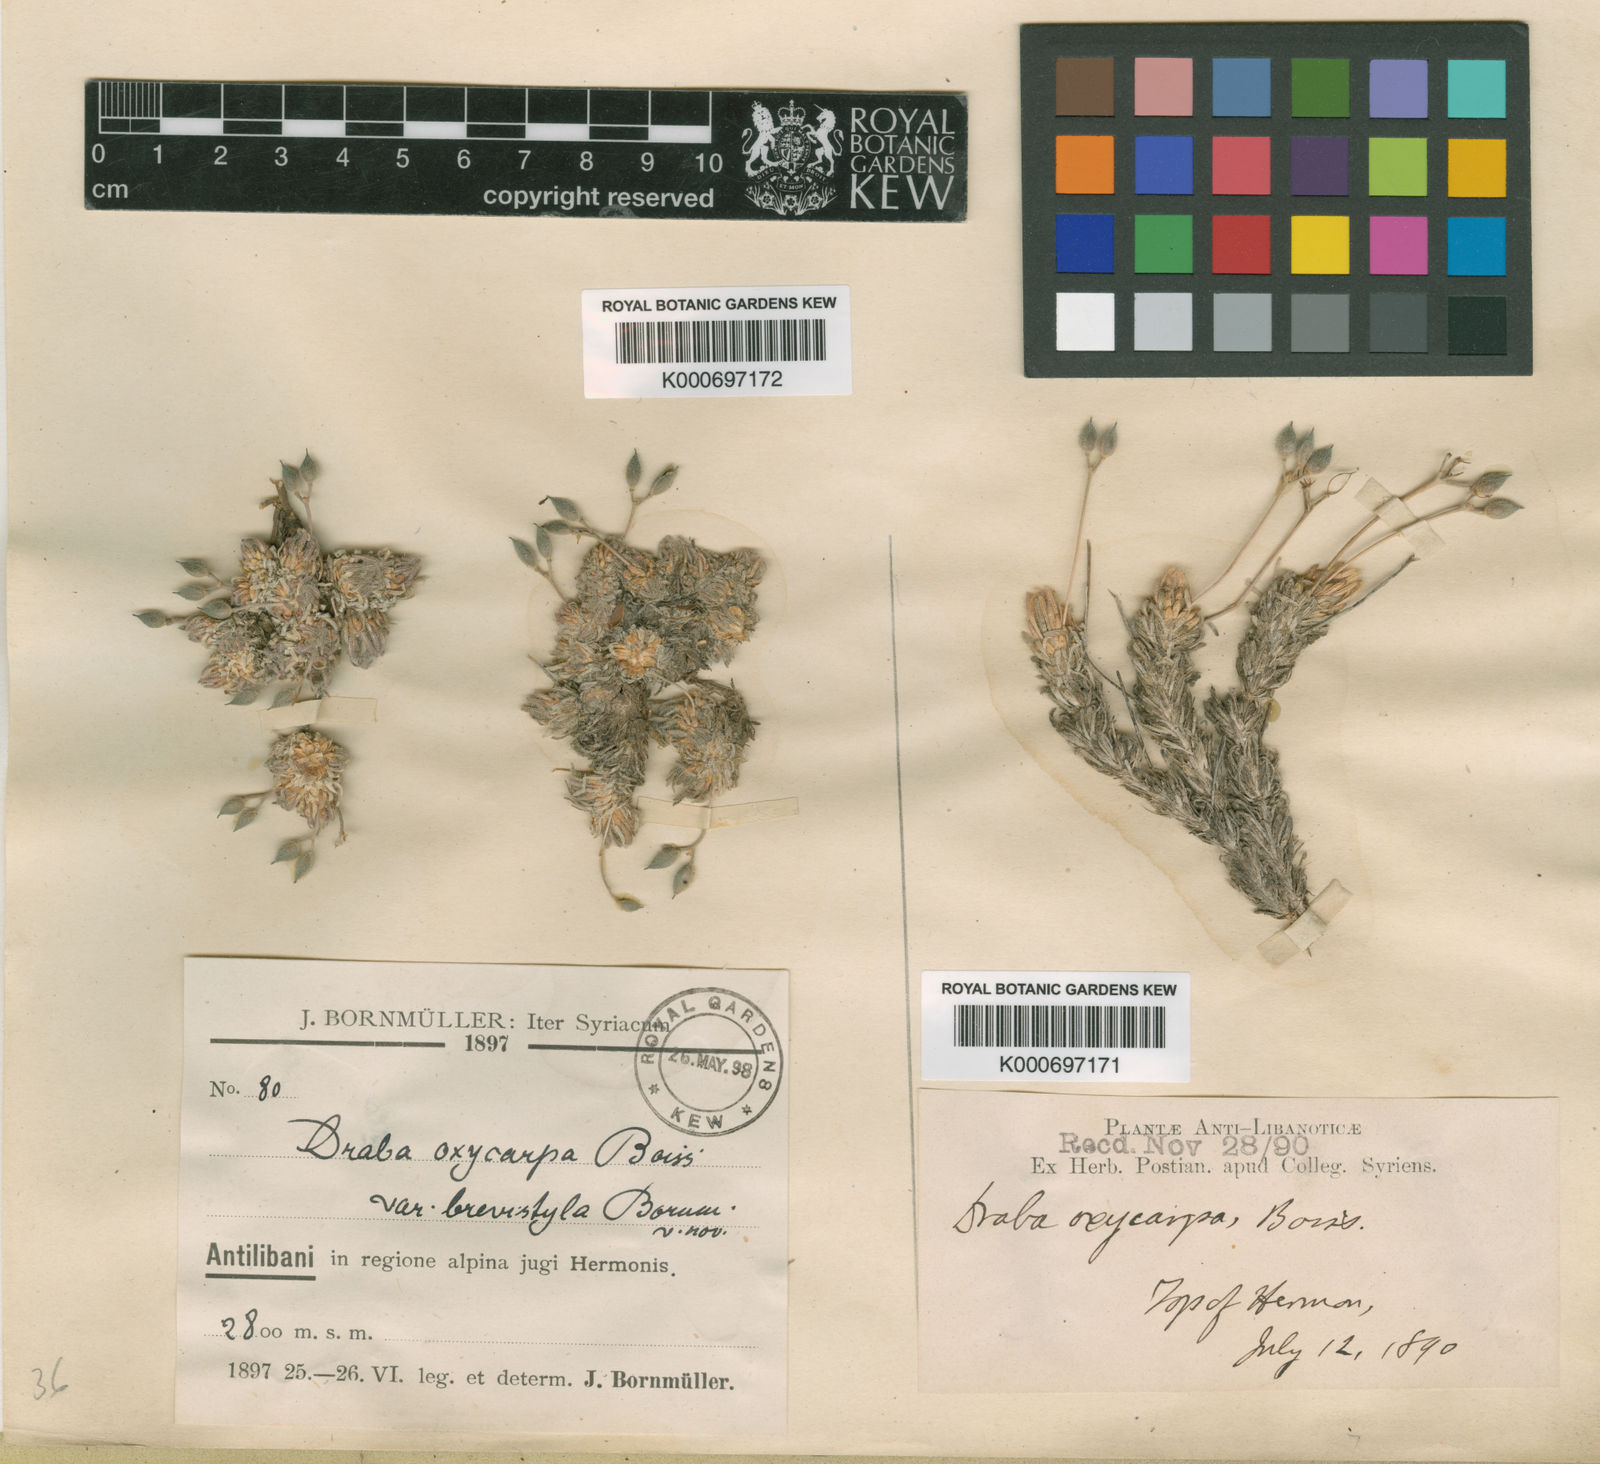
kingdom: Plantae
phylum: Tracheophyta
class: Magnoliopsida
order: Brassicales
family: Brassicaceae
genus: Draba
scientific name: Draba oxycarpa
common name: Sharp-fruited whitlow-grass
